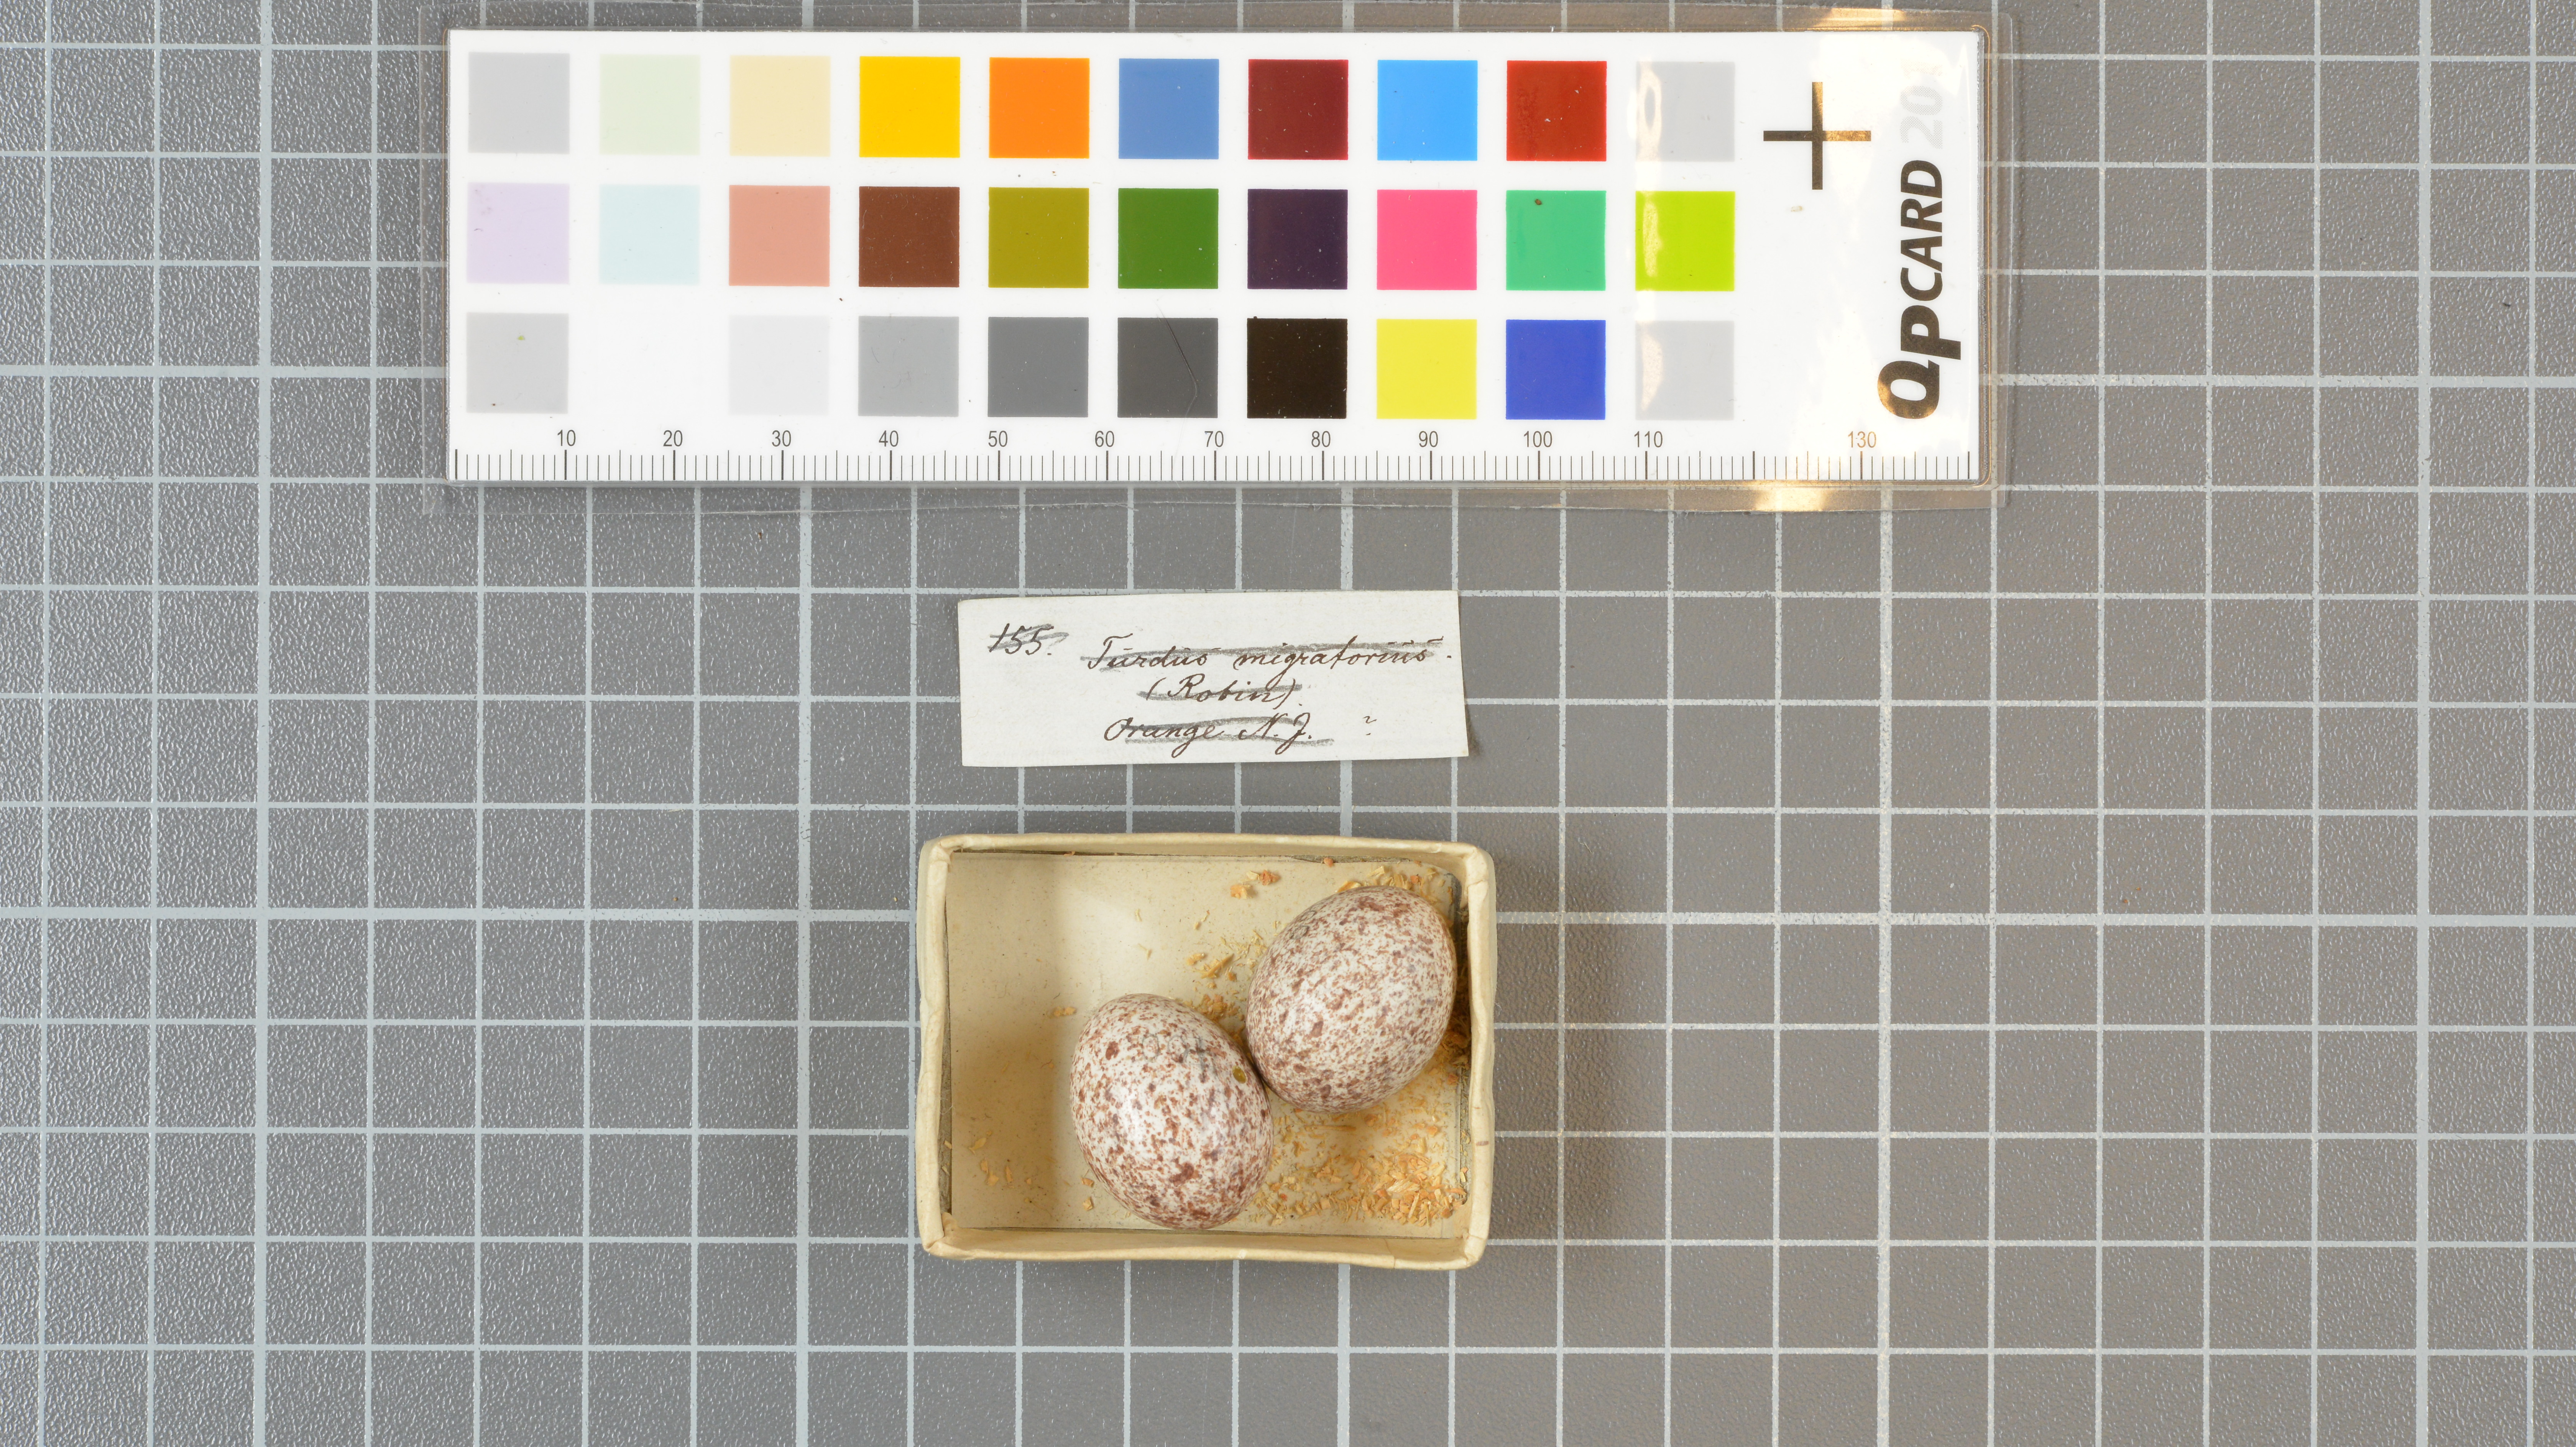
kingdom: Animalia
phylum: Chordata
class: Aves
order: Passeriformes
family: Icteridae
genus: Molothrus
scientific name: Molothrus ater
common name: Brown-headed cowbird
